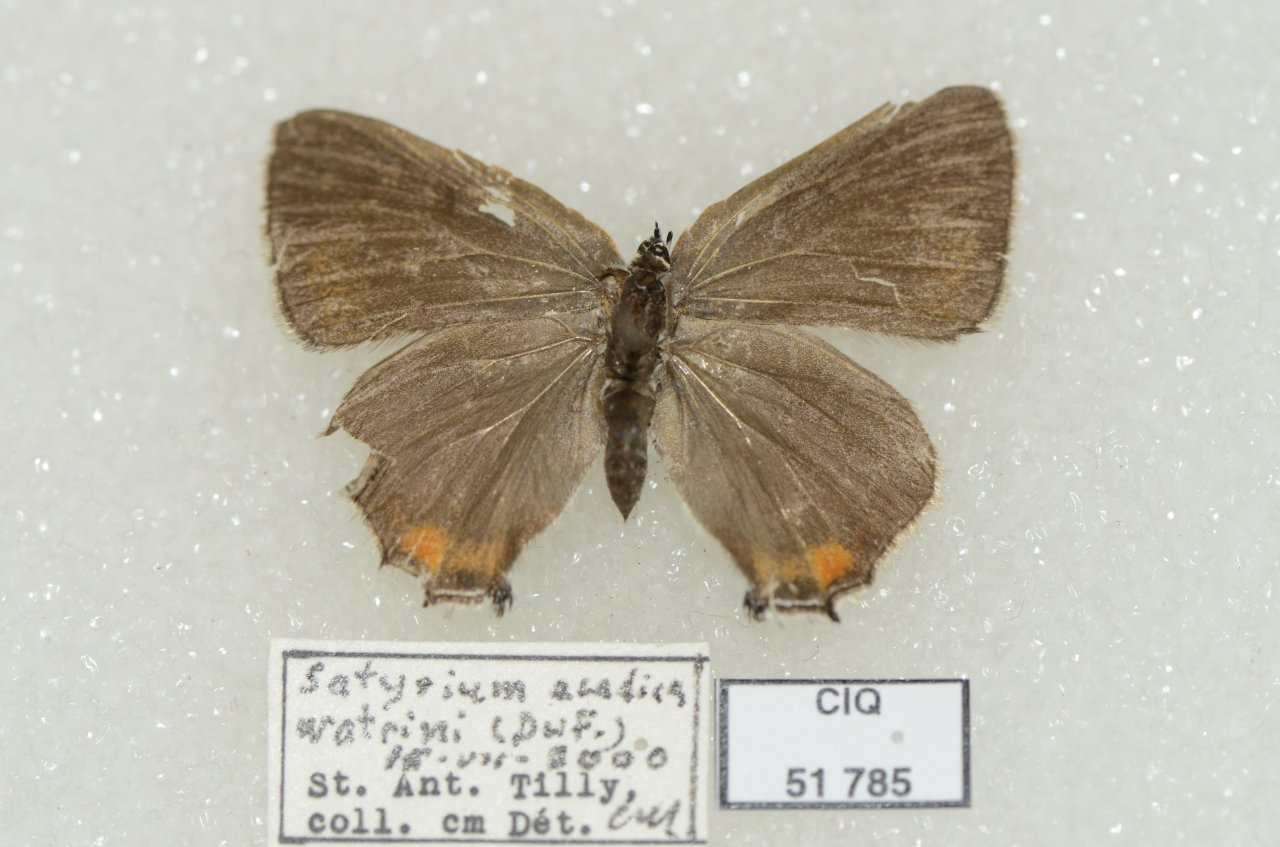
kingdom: Animalia
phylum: Arthropoda
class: Insecta
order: Lepidoptera
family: Lycaenidae
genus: Strymon
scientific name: Strymon acadica
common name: Acadian Hairstreak
